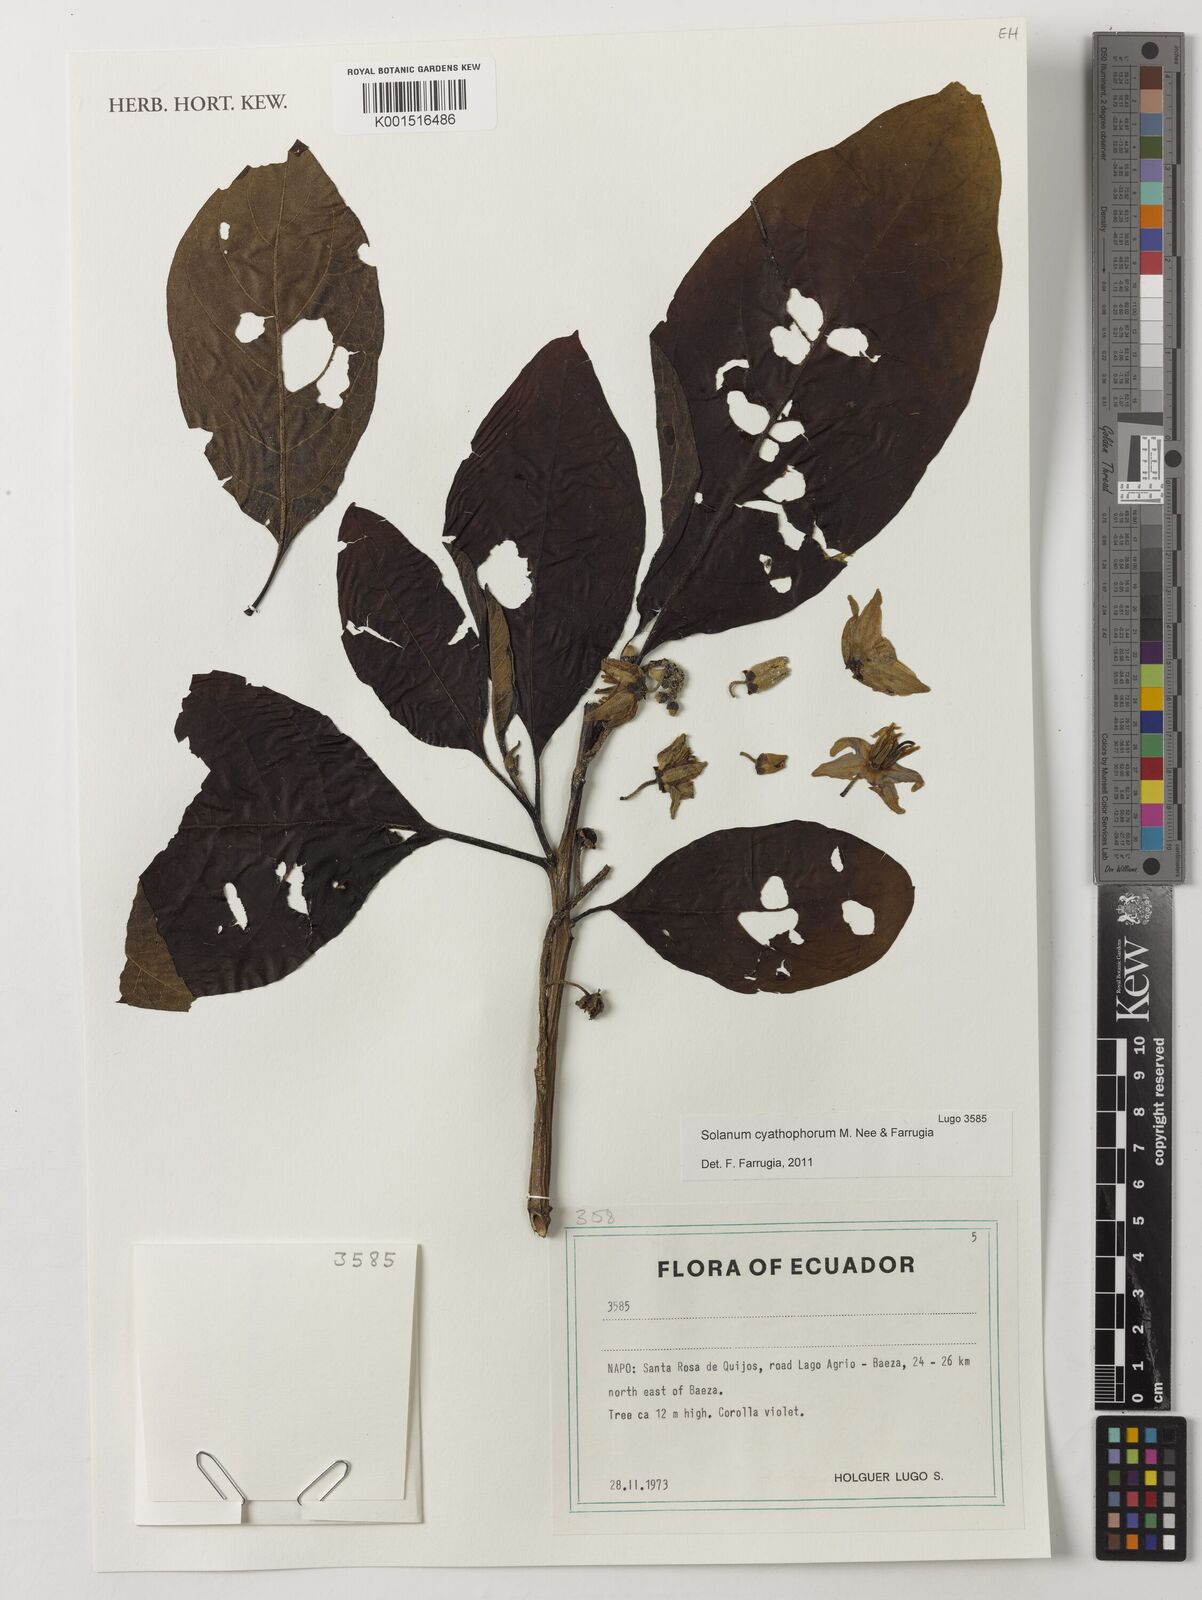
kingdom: Plantae
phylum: Tracheophyta
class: Magnoliopsida
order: Solanales
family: Solanaceae
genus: Solanum
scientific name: Solanum cyathophorum
